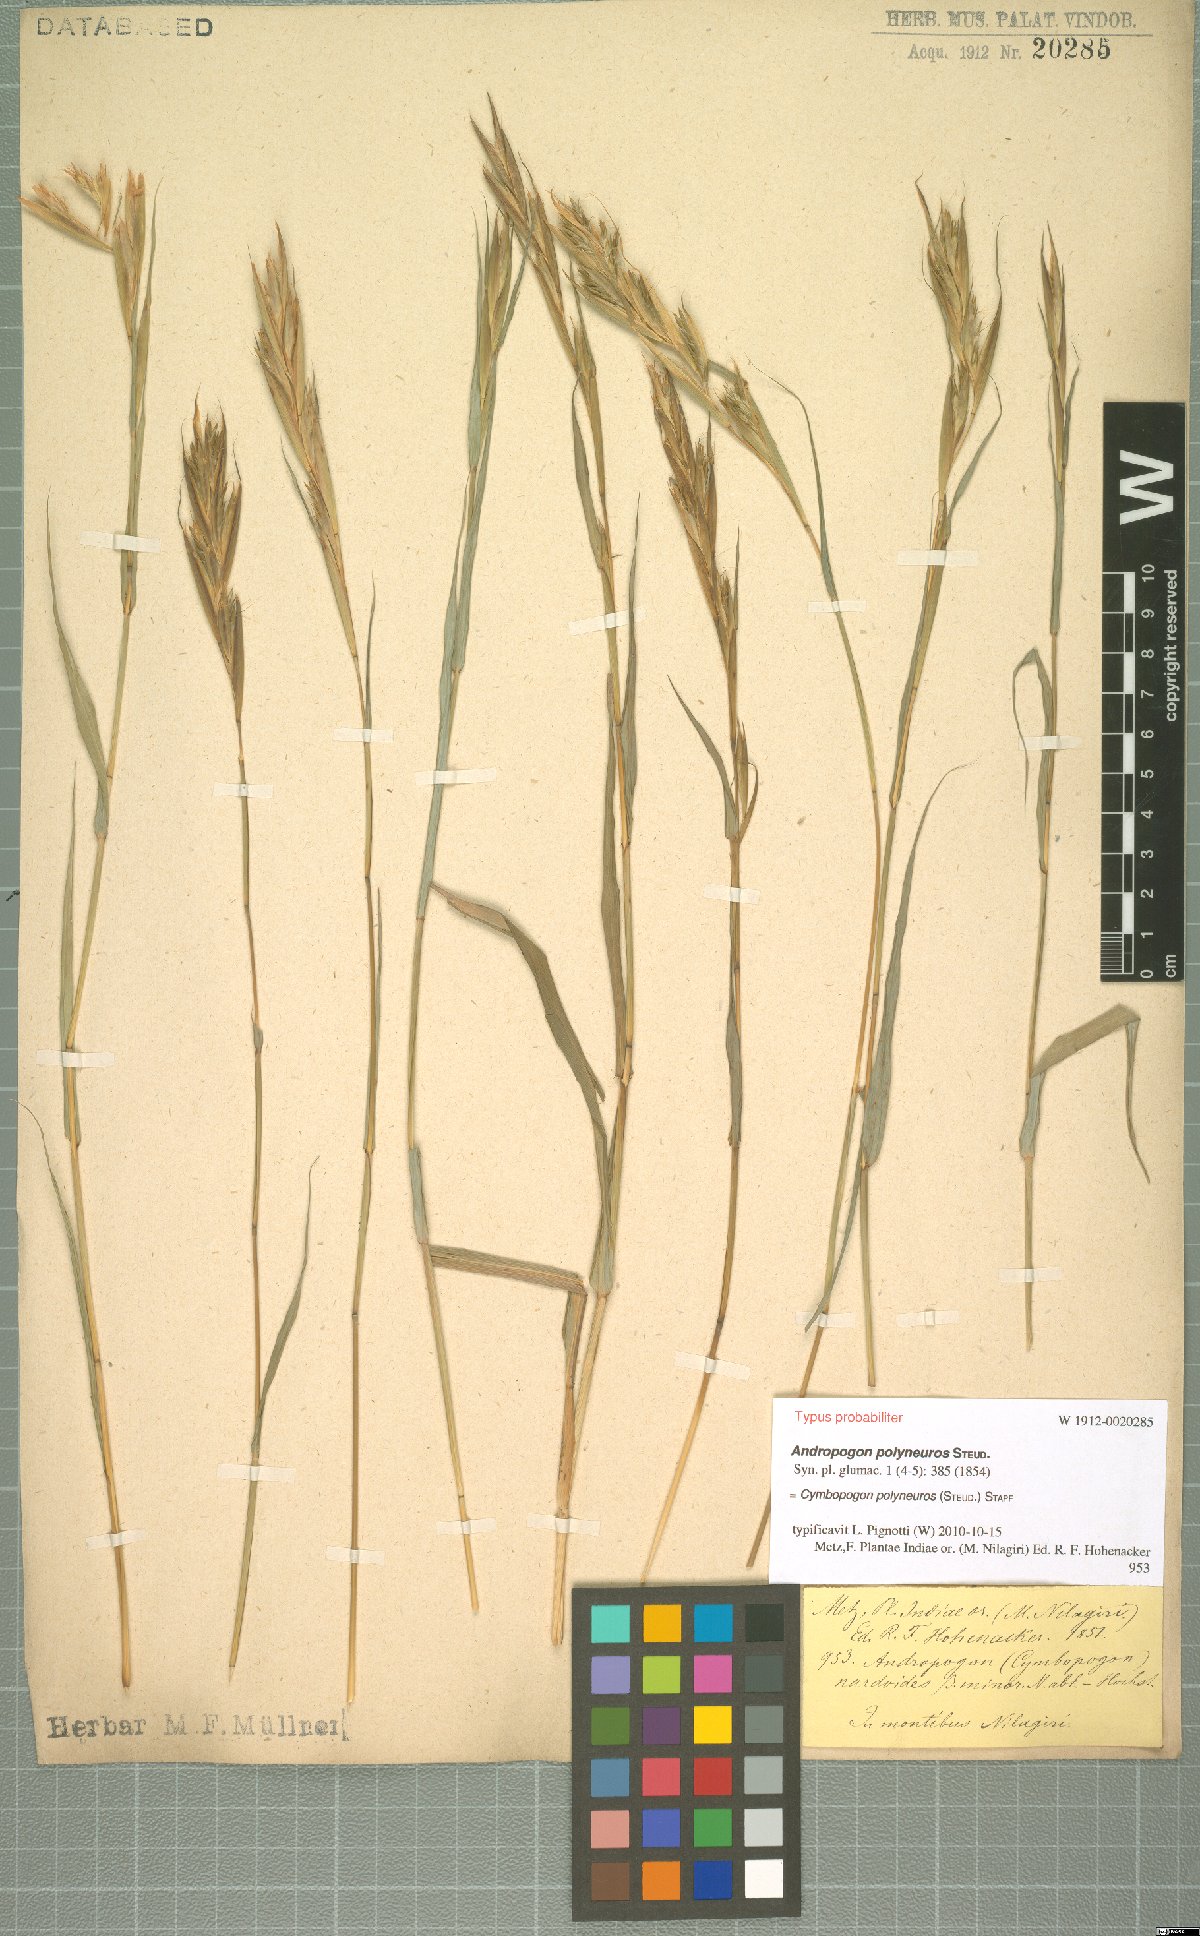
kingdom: Plantae
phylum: Tracheophyta
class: Liliopsida
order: Poales
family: Poaceae
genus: Cymbopogon
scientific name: Cymbopogon polyneuros
